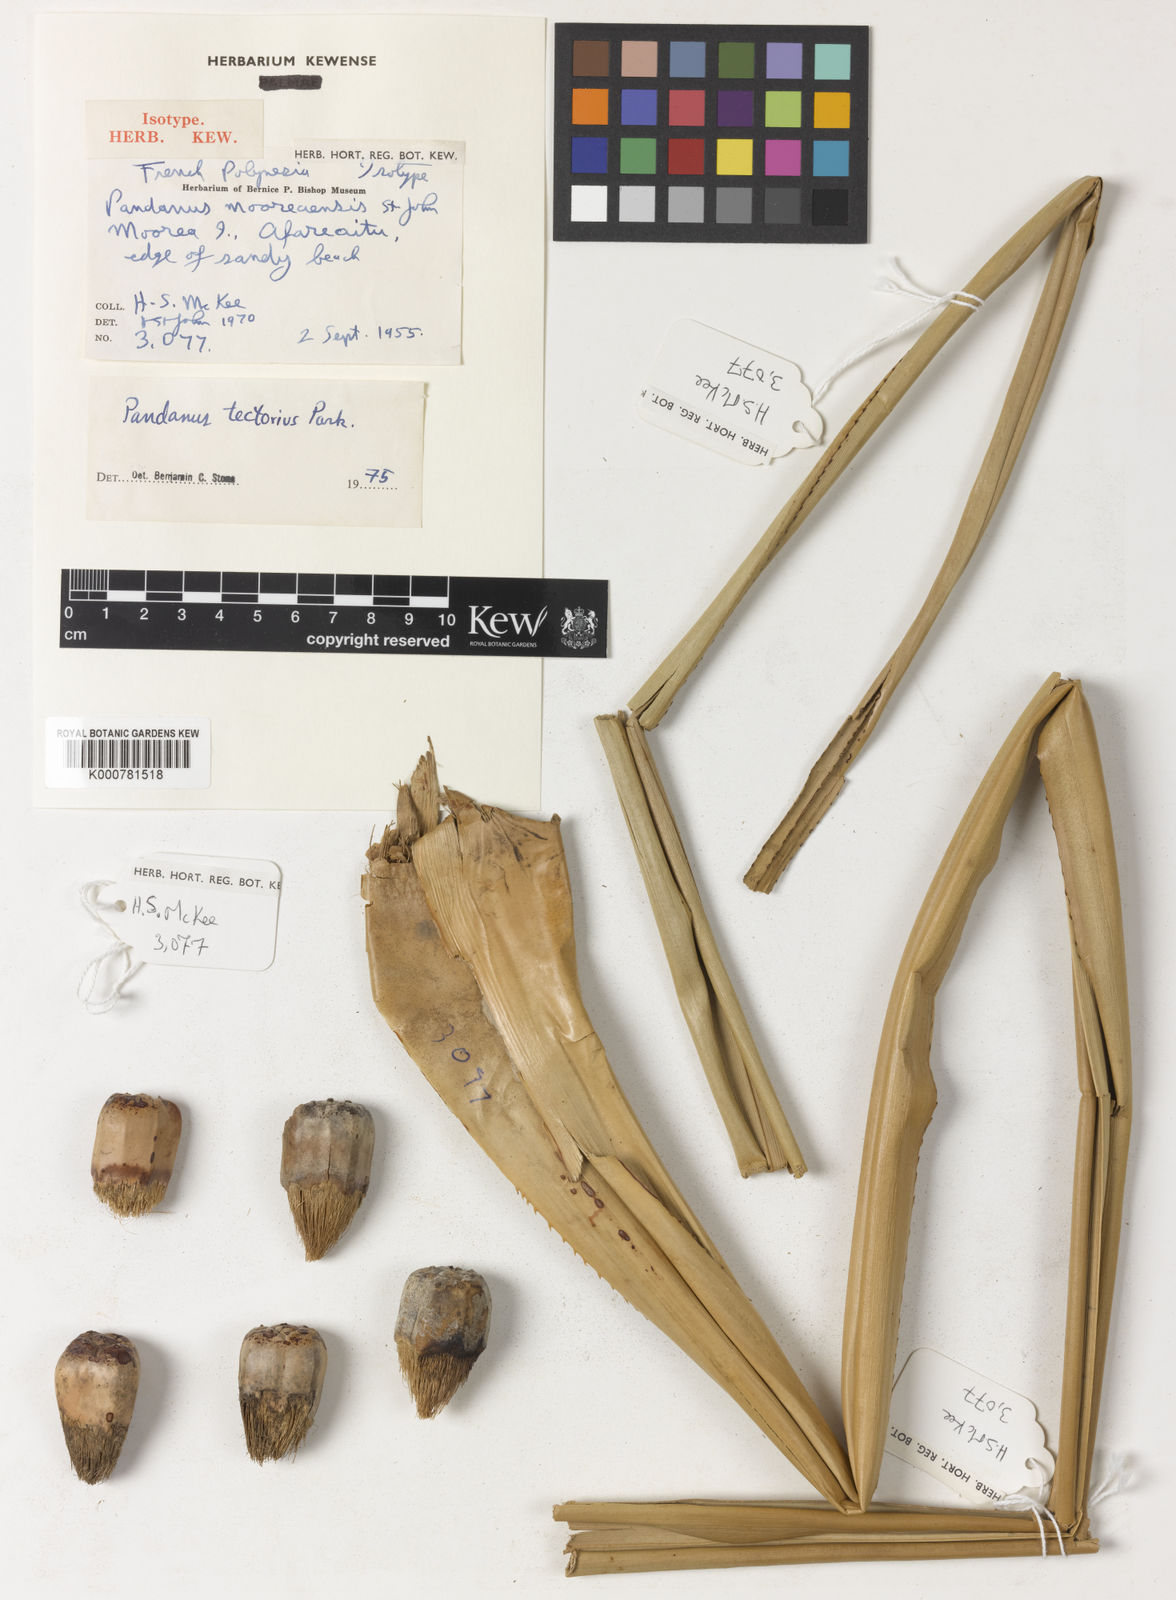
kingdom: Plantae
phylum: Tracheophyta
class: Liliopsida
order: Pandanales
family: Pandanaceae
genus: Pandanus
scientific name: Pandanus
